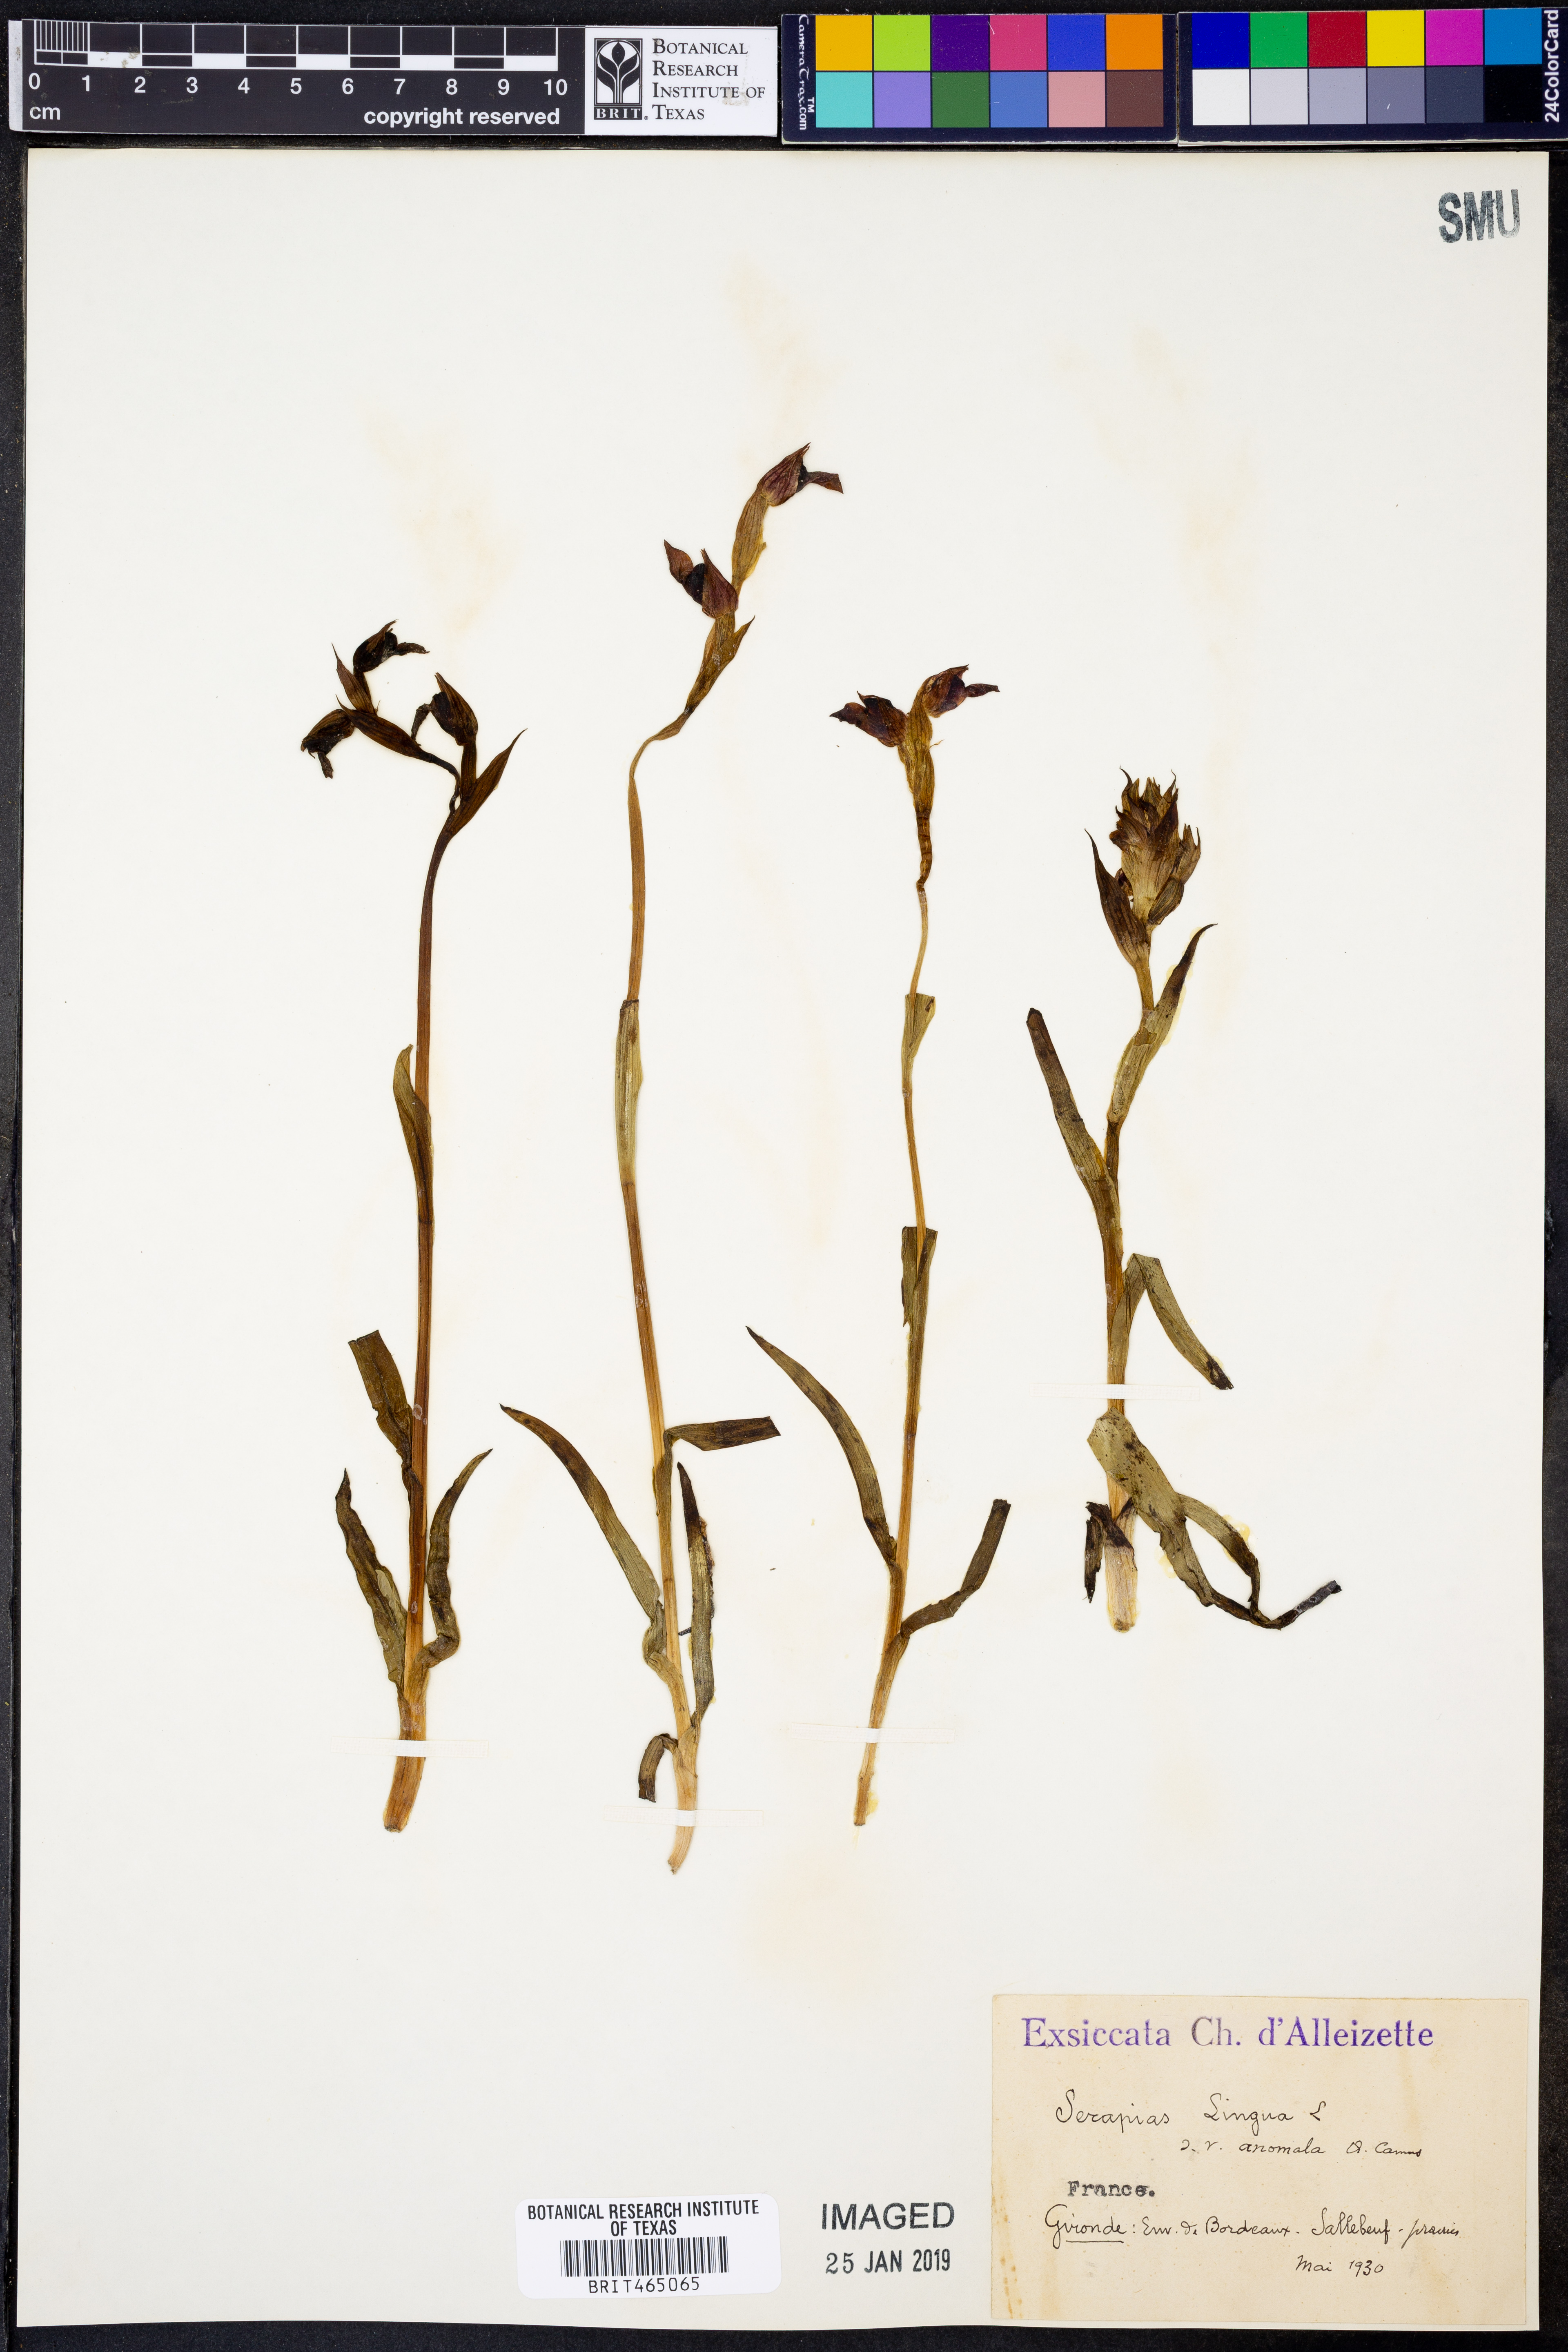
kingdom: Plantae
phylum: Tracheophyta
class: Liliopsida
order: Asparagales
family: Orchidaceae
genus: Serapias
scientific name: Serapias lingua
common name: Tongue-orchid
